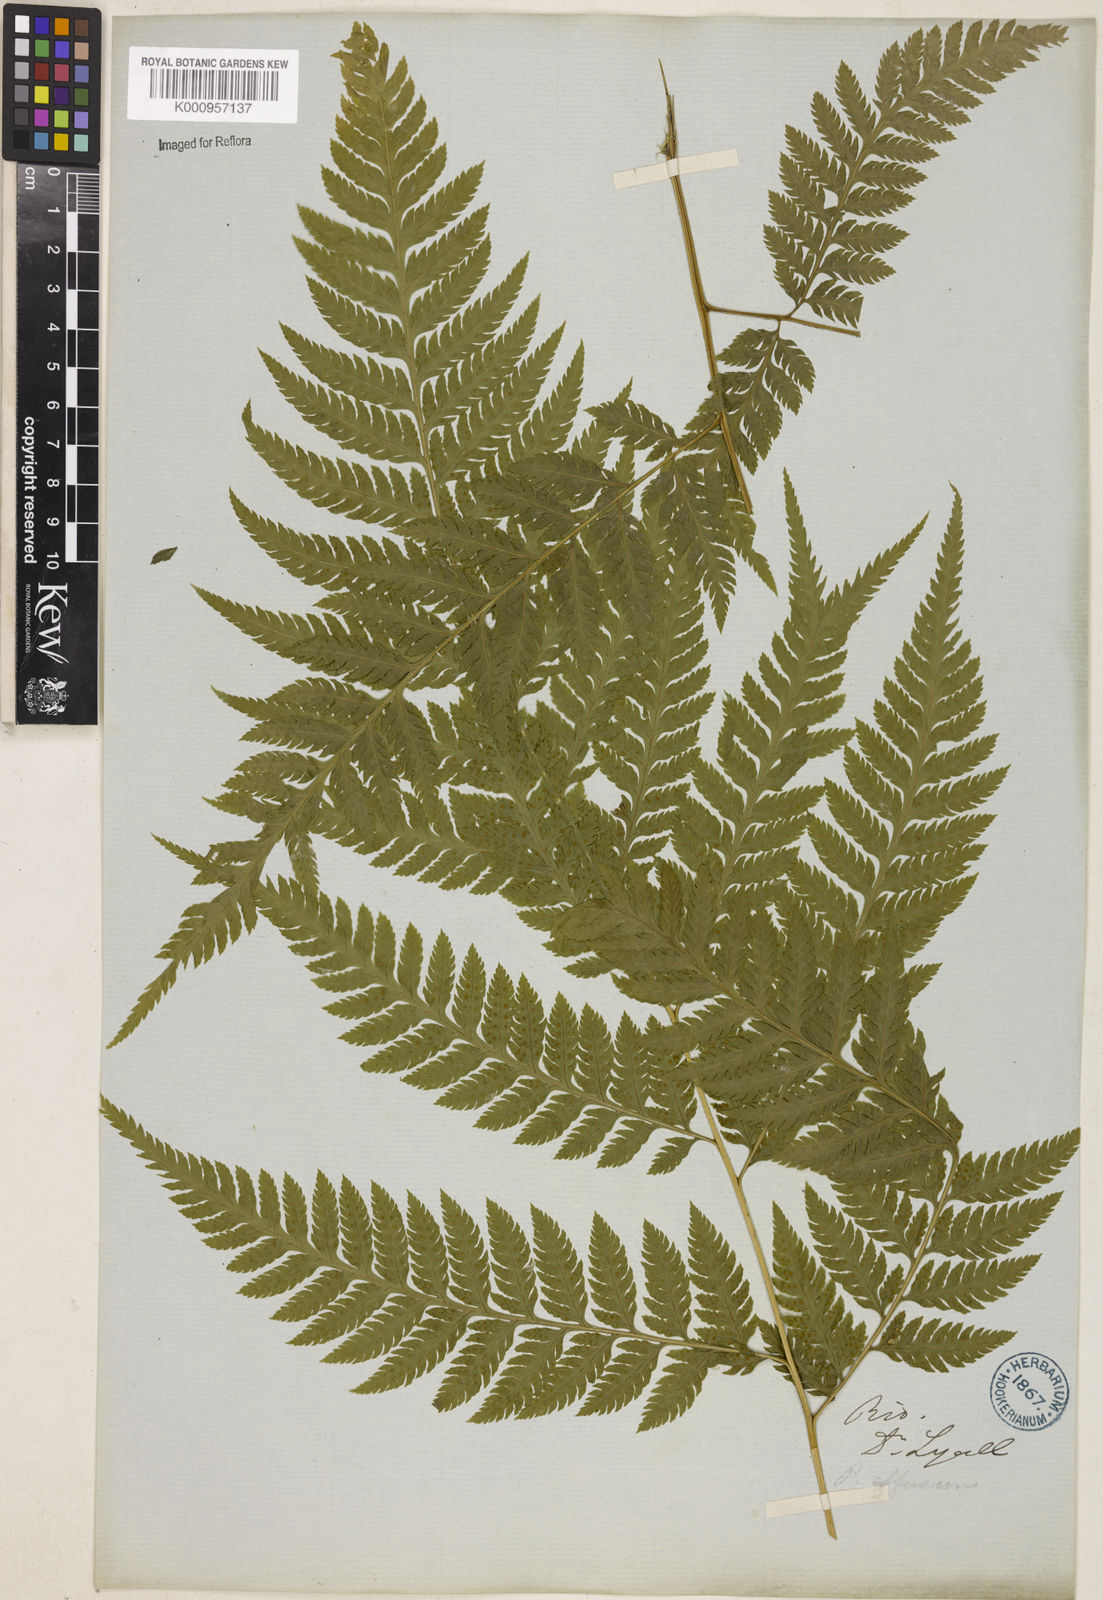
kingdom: Plantae
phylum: Tracheophyta
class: Polypodiopsida
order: Polypodiales
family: Dryopteridaceae
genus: Parapolystichum
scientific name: Parapolystichum effusum
